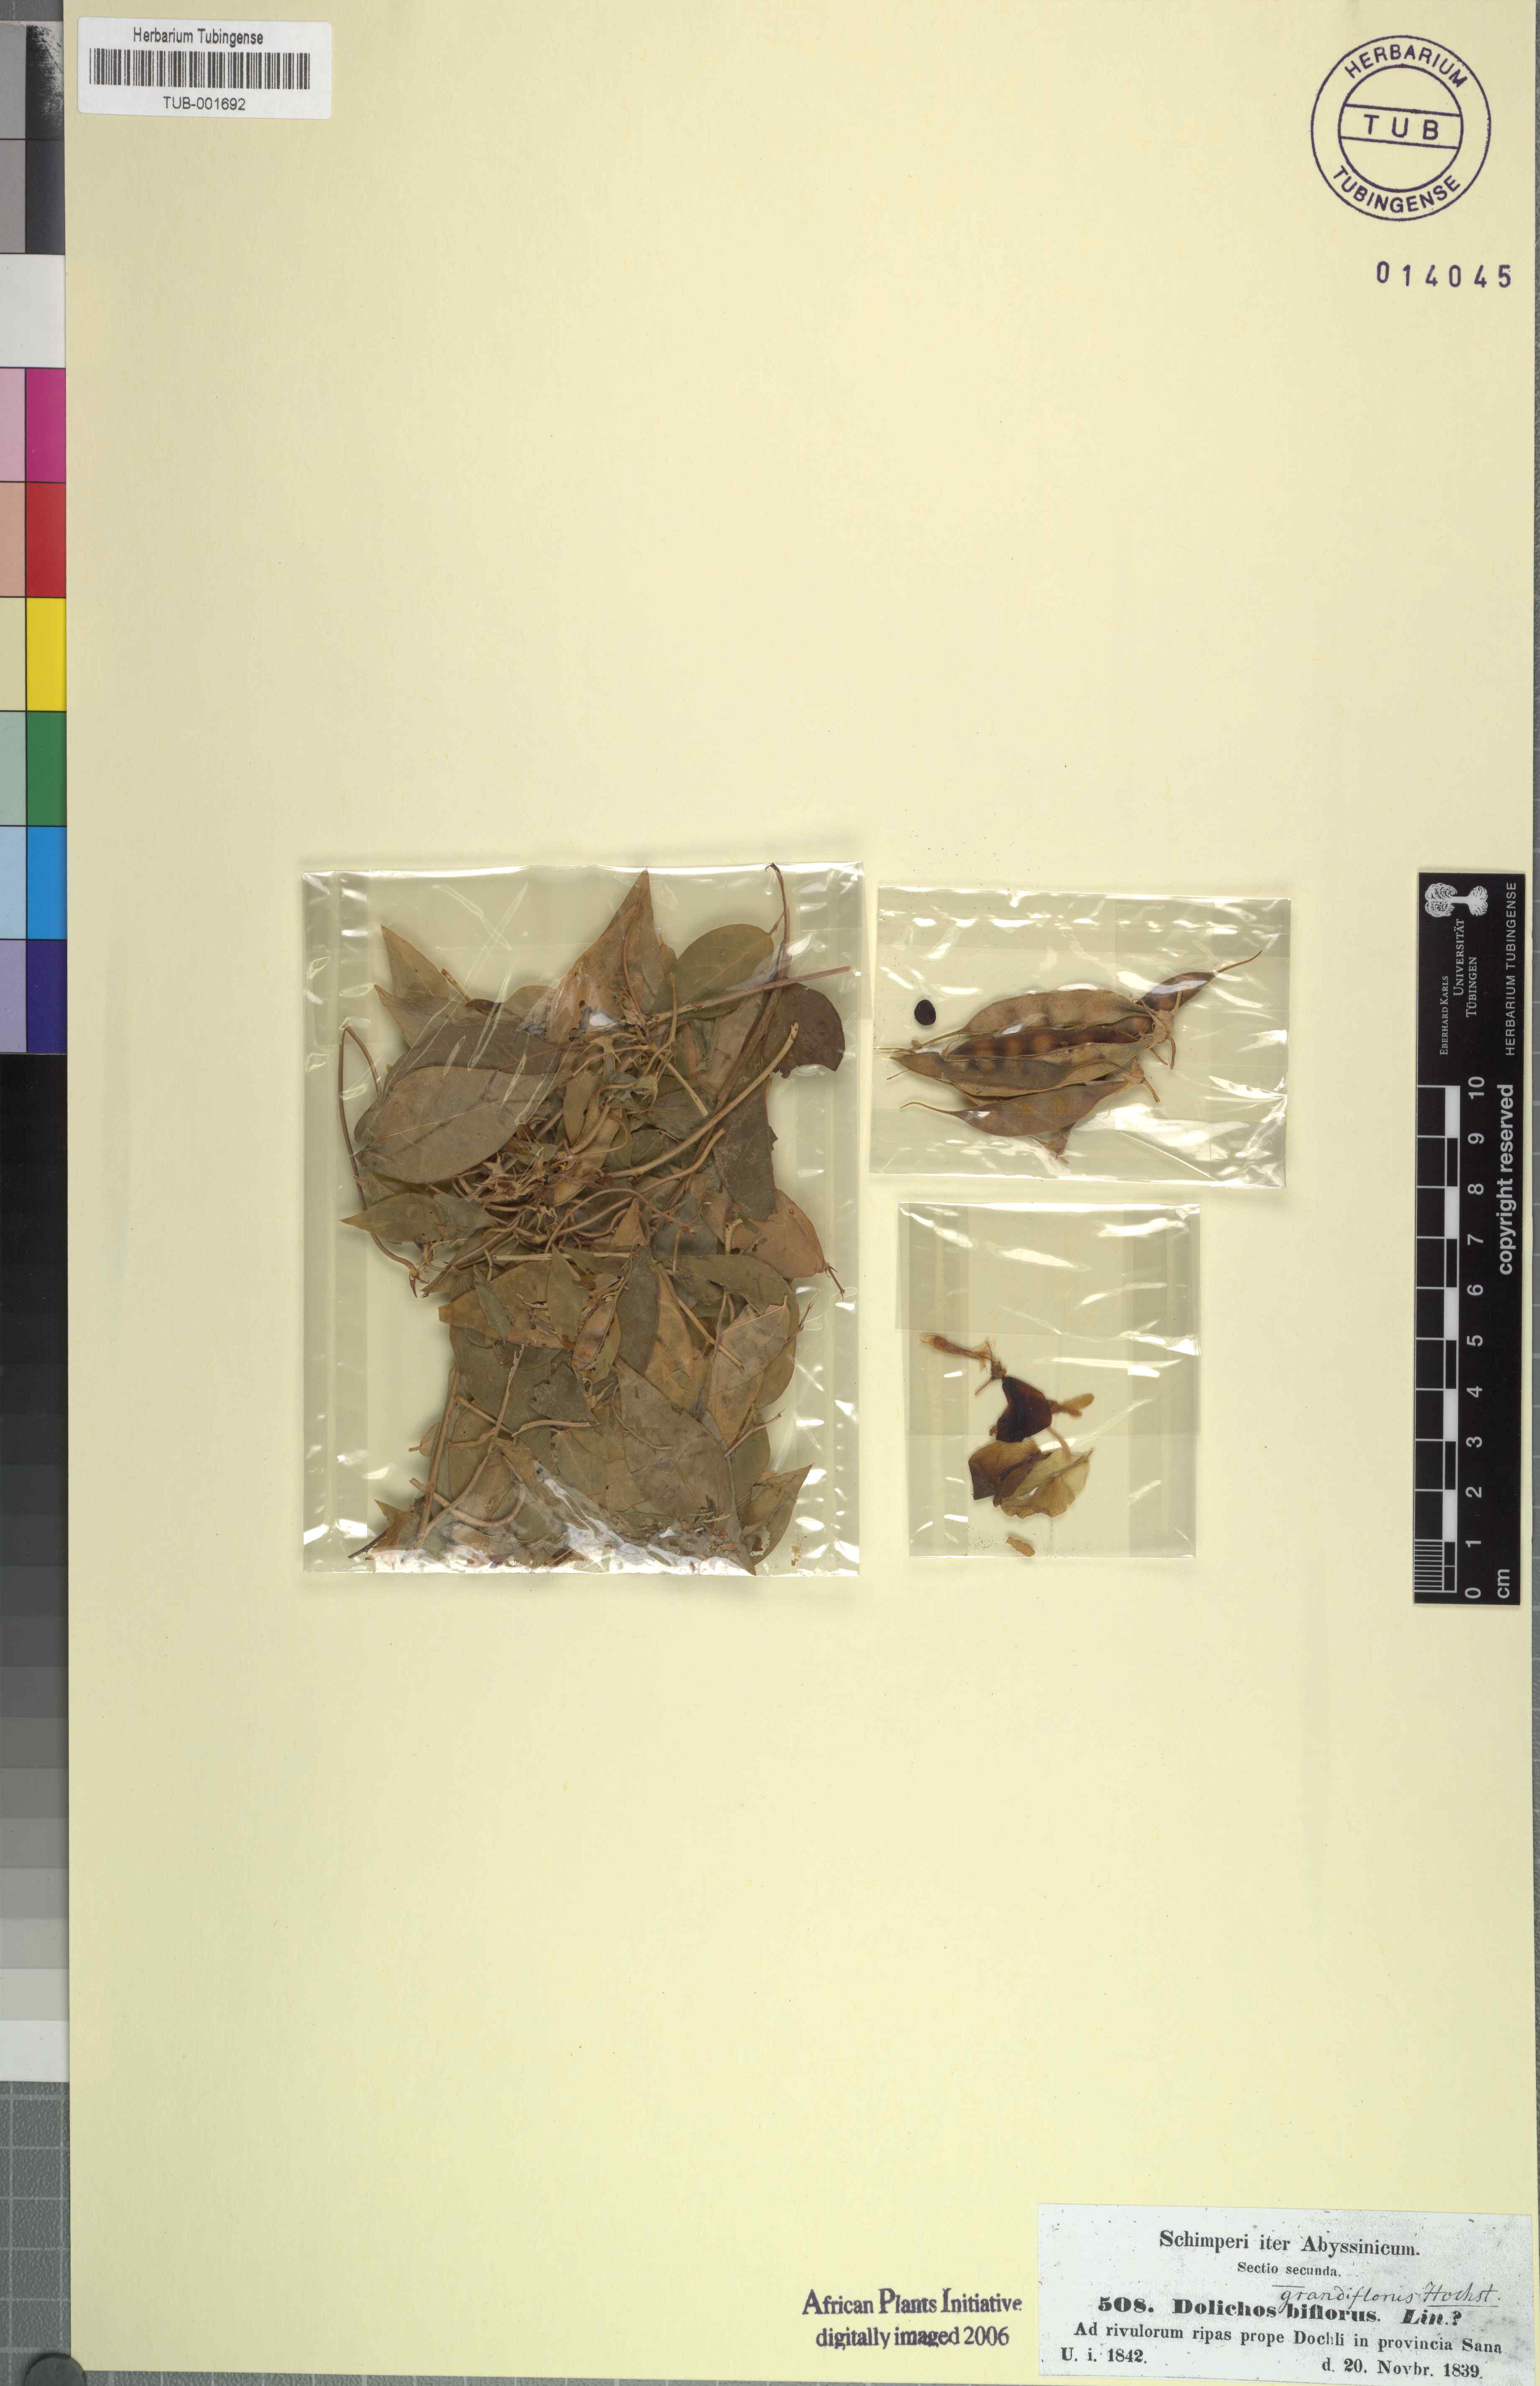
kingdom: Plantae
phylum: Tracheophyta
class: Magnoliopsida
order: Fabales
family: Fabaceae
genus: Pueraria
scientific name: Pueraria montana
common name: Kudzu
